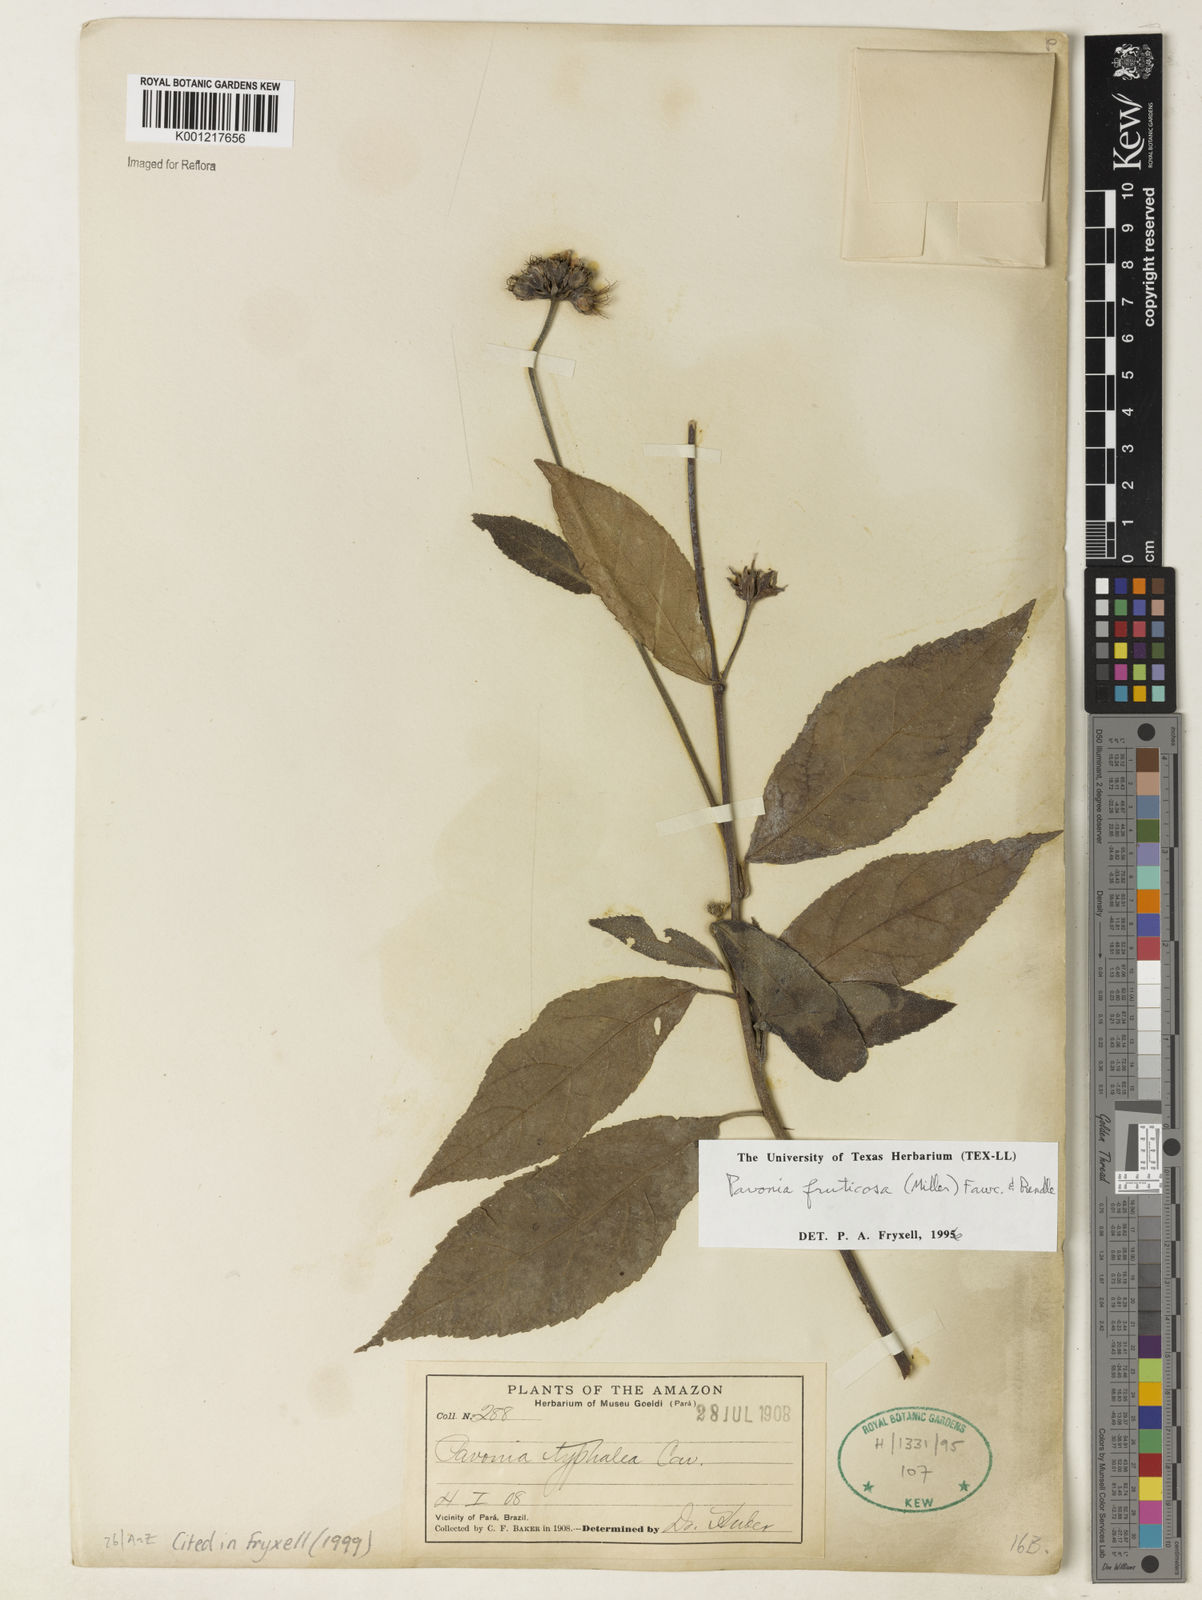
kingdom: Plantae
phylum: Tracheophyta
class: Magnoliopsida
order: Malvales
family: Malvaceae
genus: Pavonia
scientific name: Pavonia fruticosa
